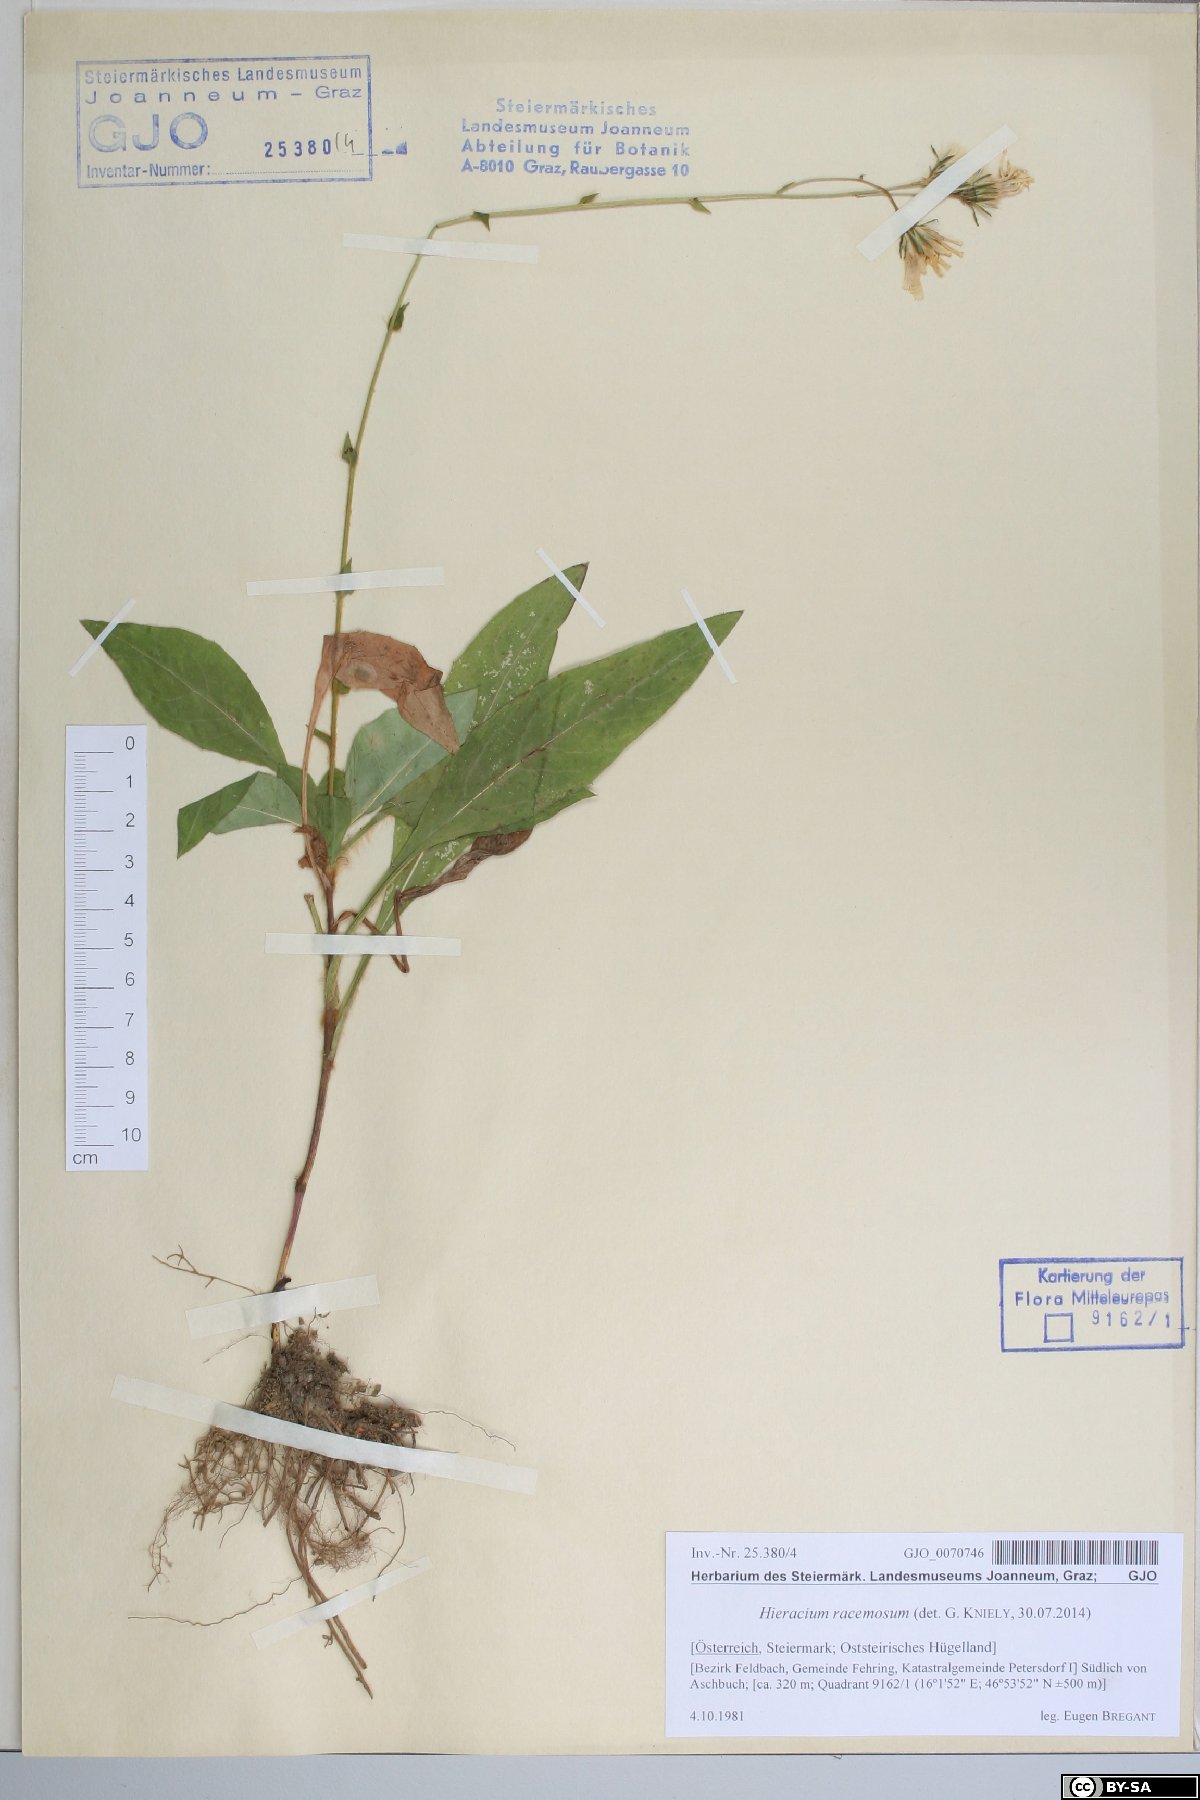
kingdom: Plantae
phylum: Tracheophyta
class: Magnoliopsida
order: Asterales
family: Asteraceae
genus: Hieracium
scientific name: Hieracium racemosum
